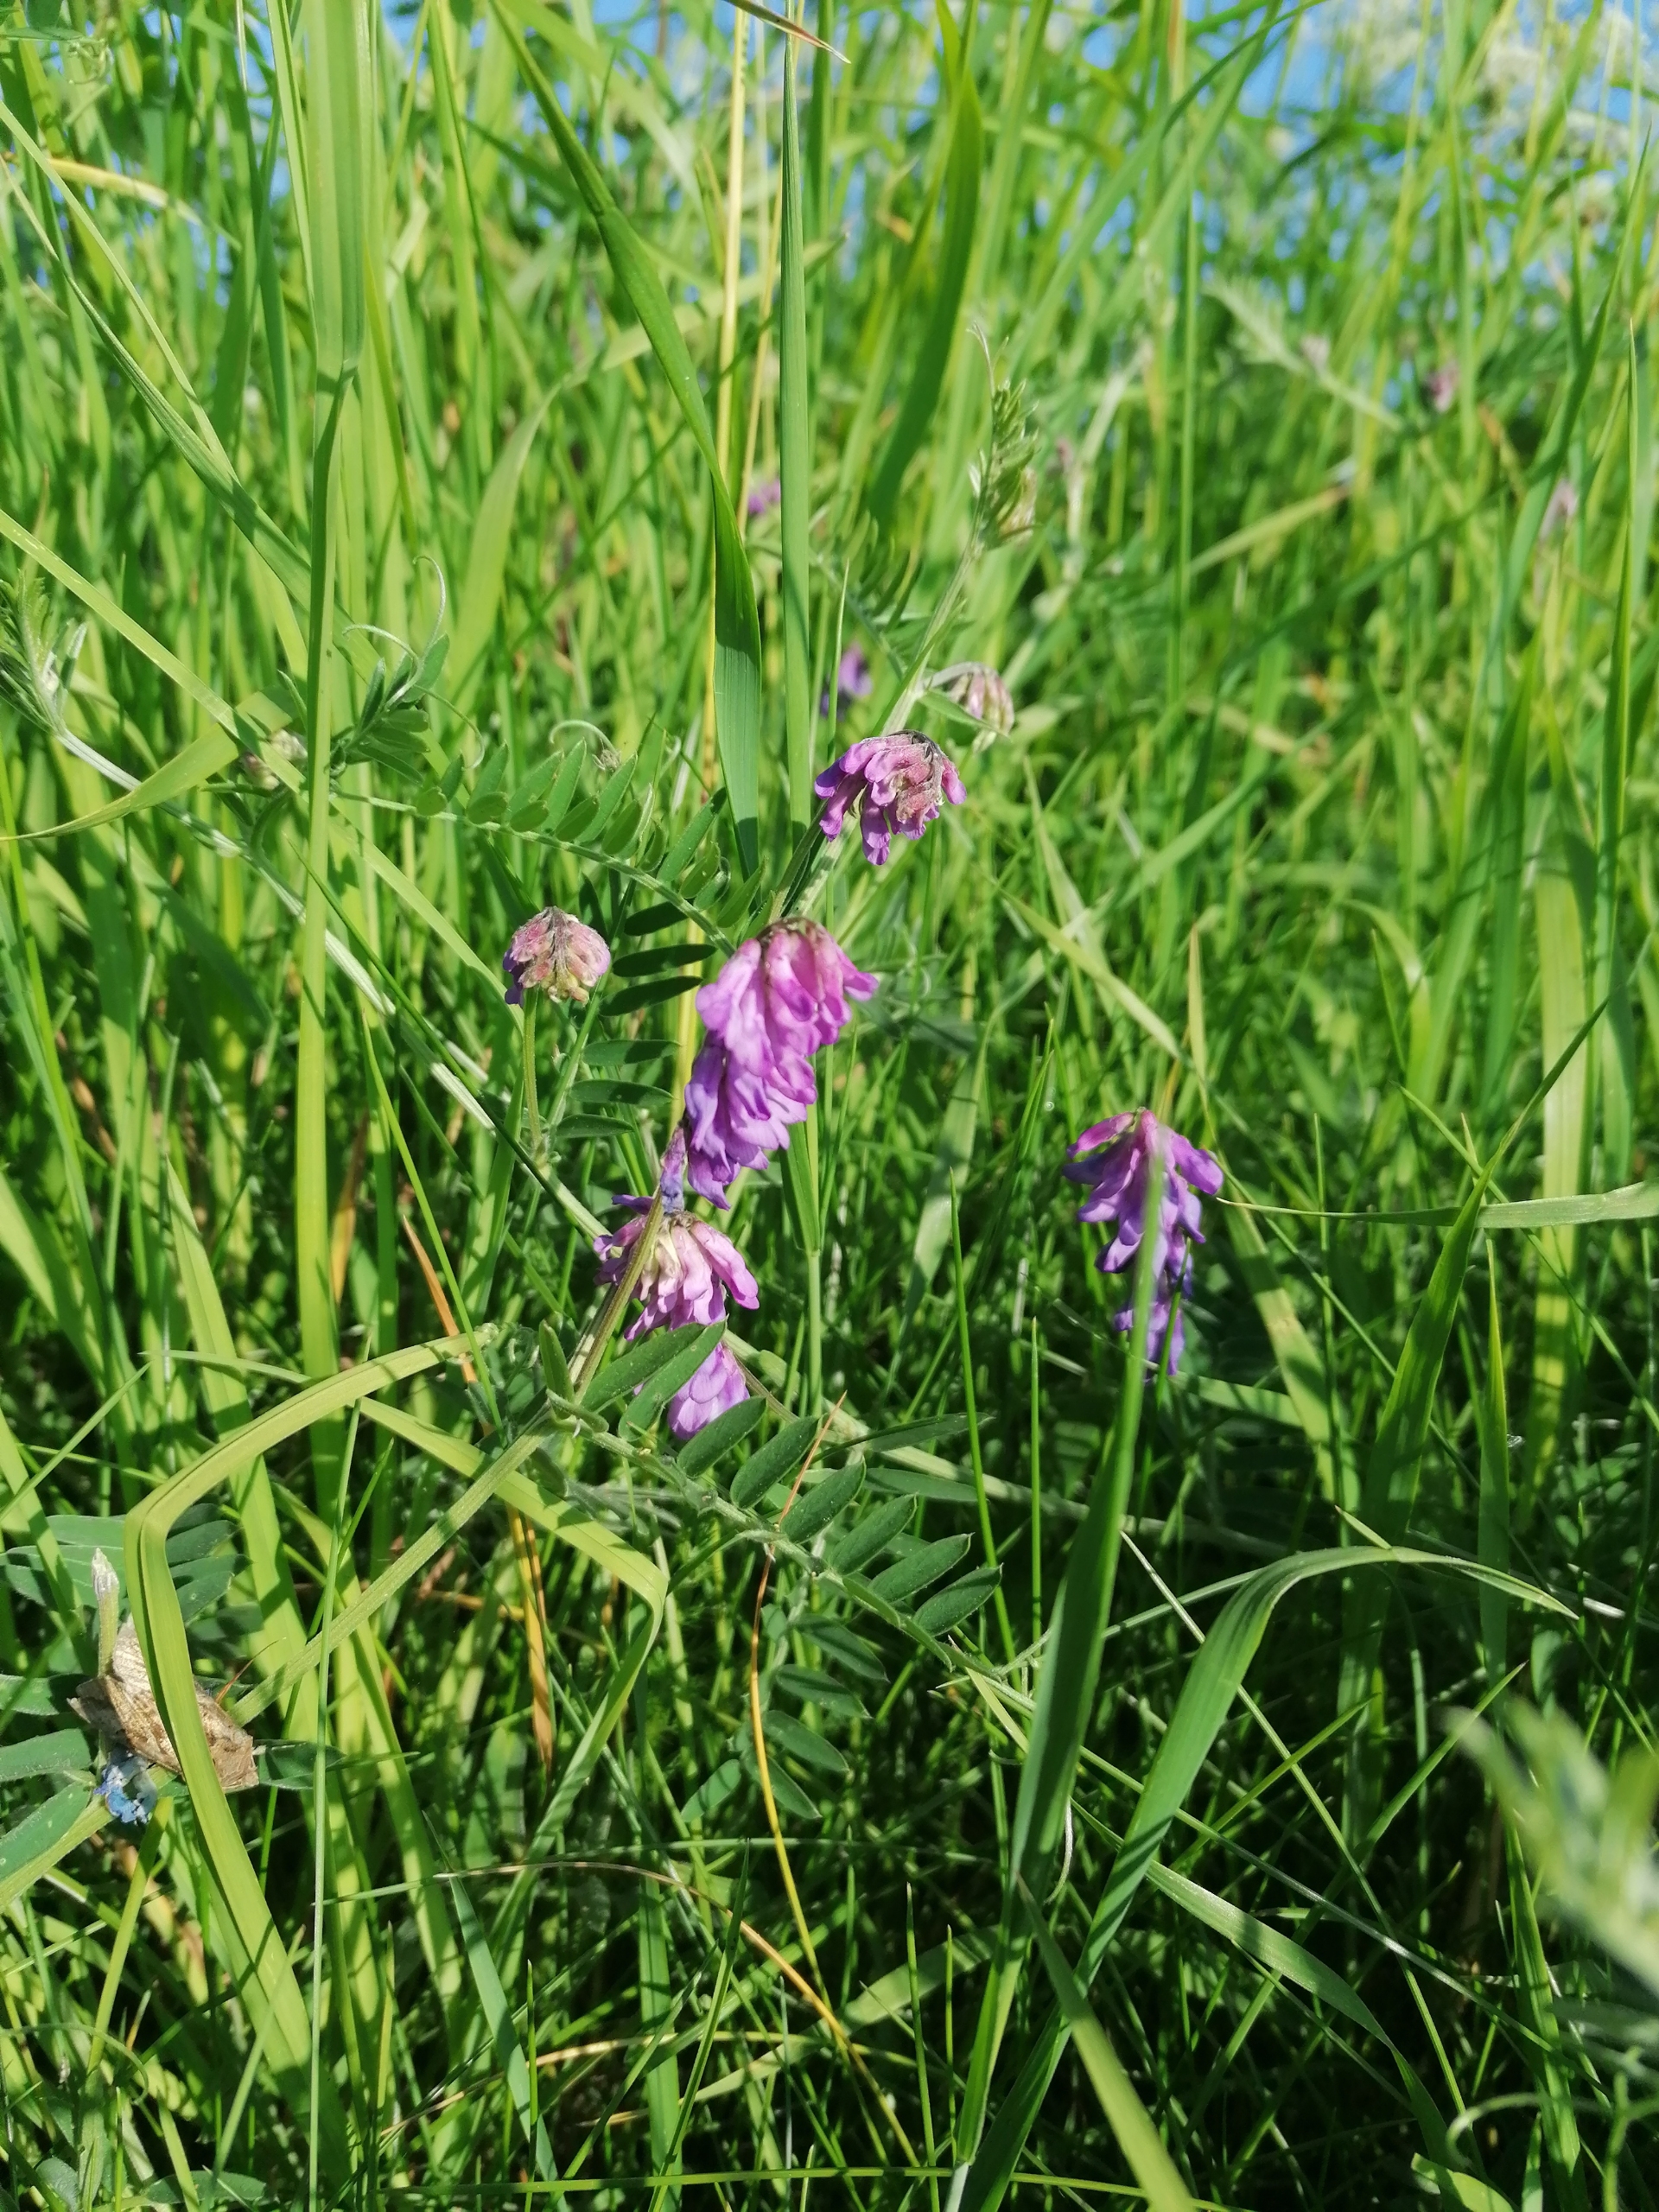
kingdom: Plantae
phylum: Tracheophyta
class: Magnoliopsida
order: Fabales
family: Fabaceae
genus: Vicia
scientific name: Vicia cracca
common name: Muse-vikke
